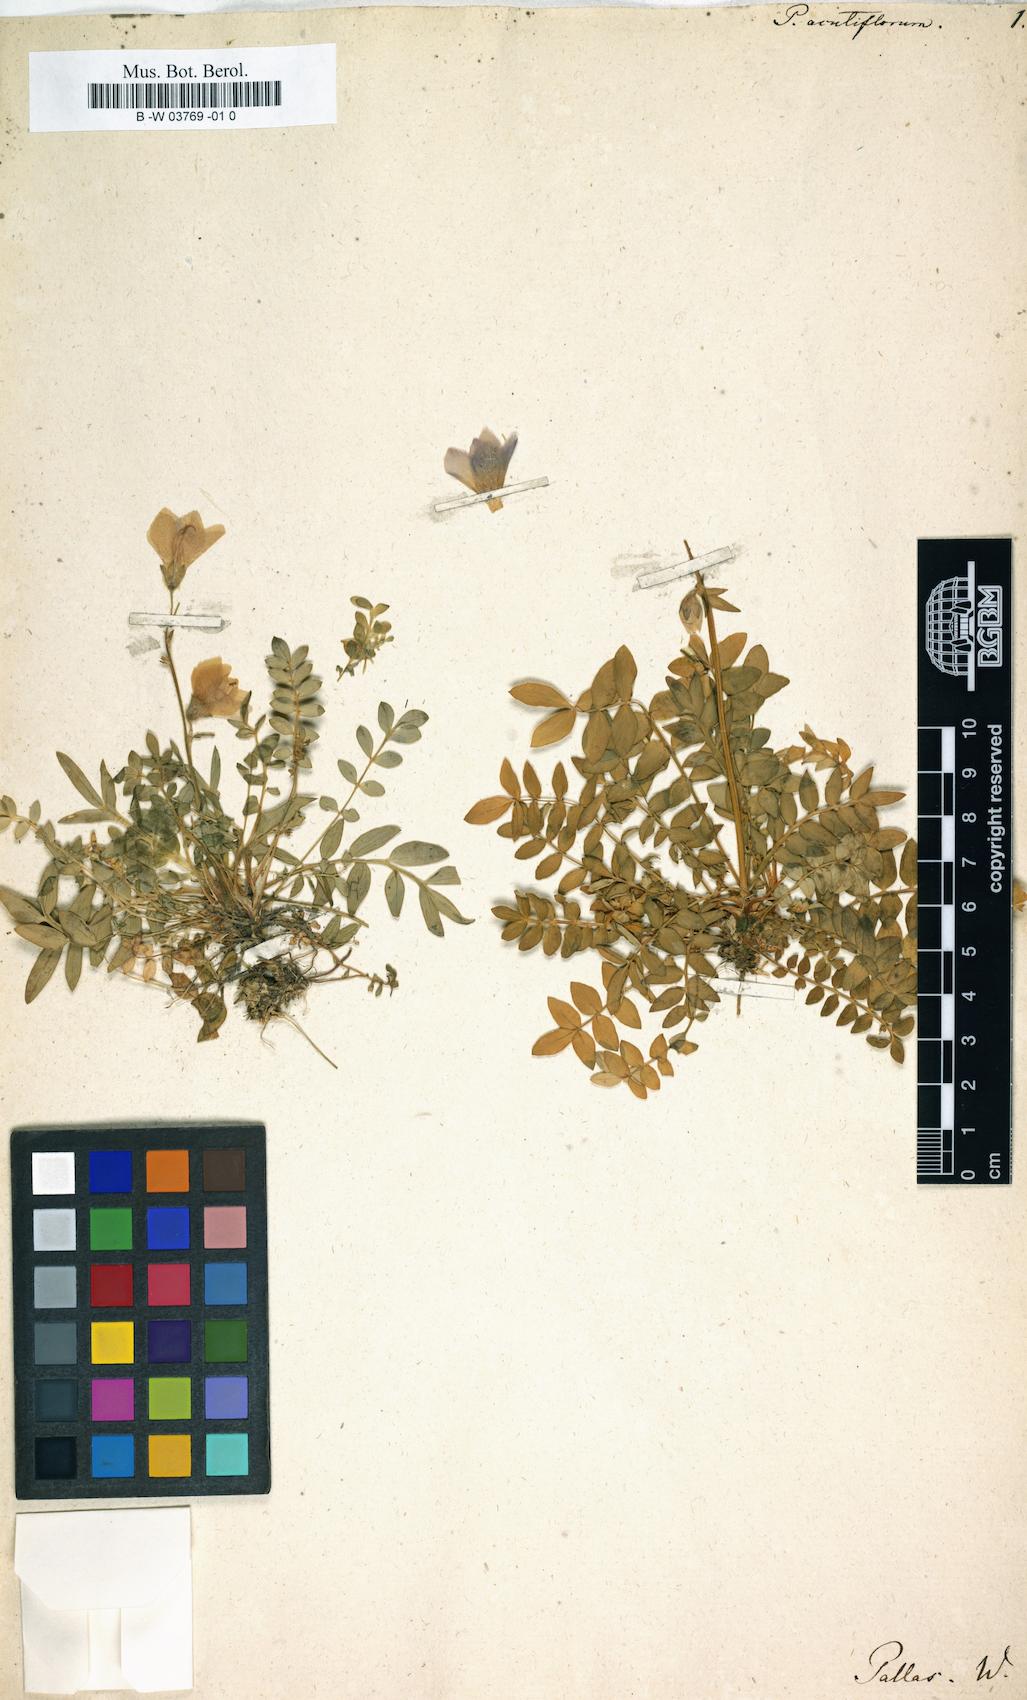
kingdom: Plantae
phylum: Tracheophyta
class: Magnoliopsida
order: Ericales
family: Polemoniaceae
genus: Polemonium
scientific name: Polemonium acutiflorum
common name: Tall jacob's-ladder
